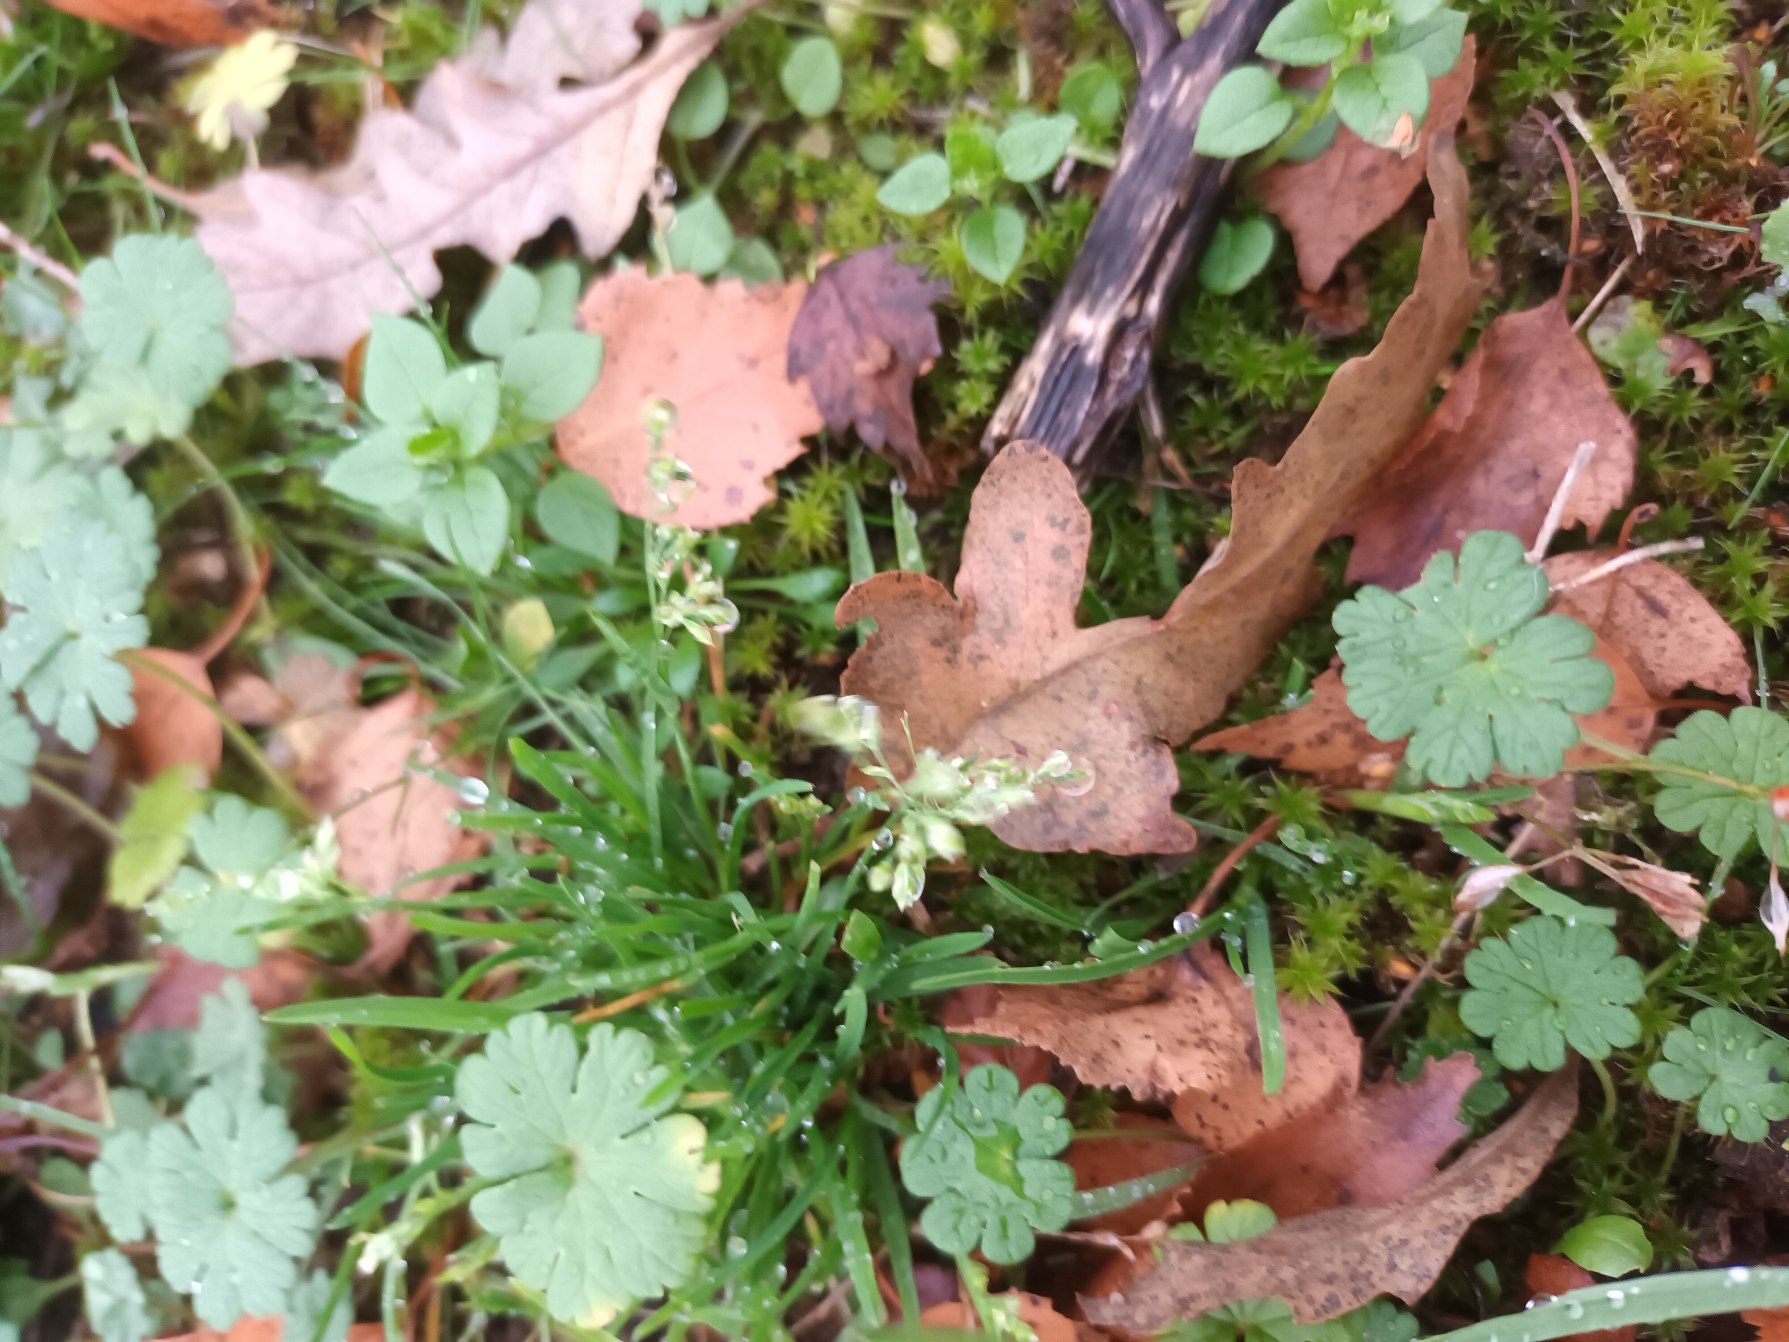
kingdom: Plantae
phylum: Tracheophyta
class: Liliopsida
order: Poales
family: Poaceae
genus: Poa
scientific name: Poa annua
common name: Enårig rapgræs
